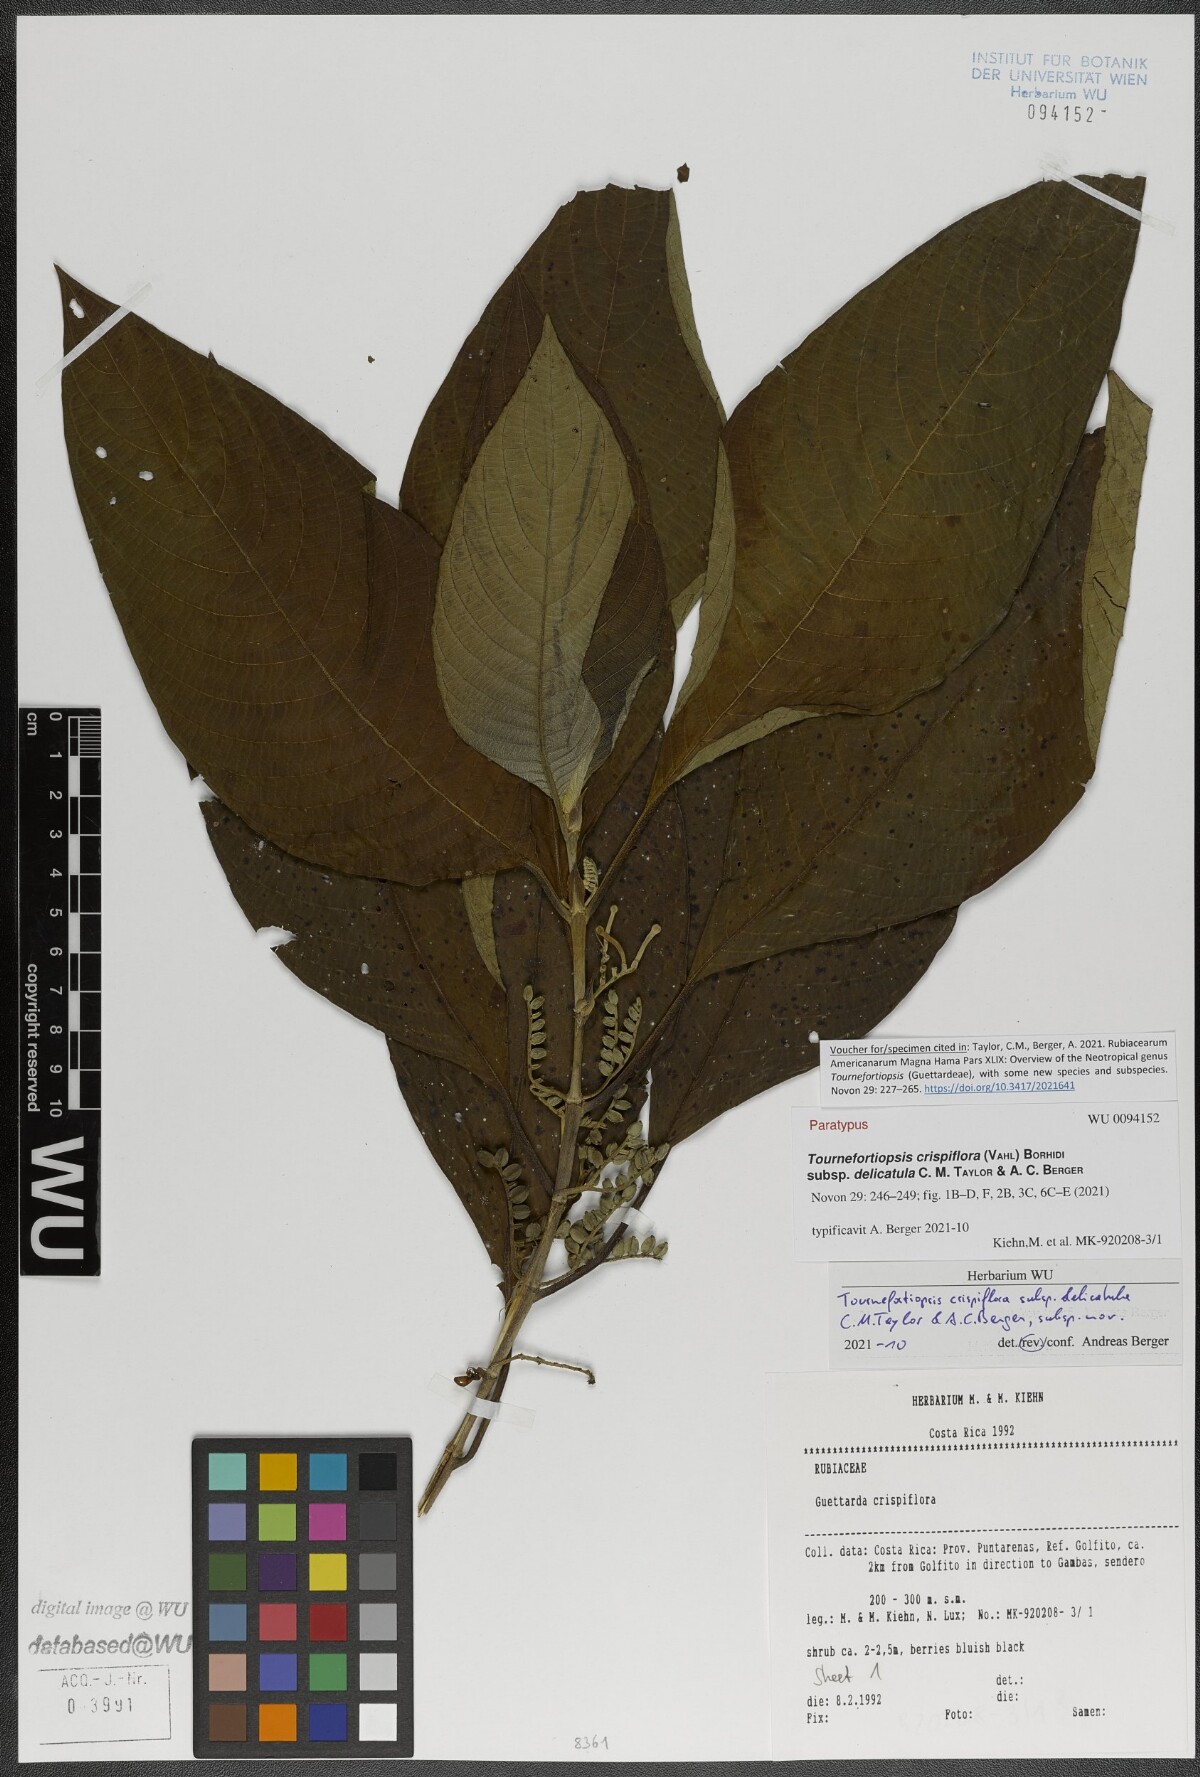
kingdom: Plantae
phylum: Tracheophyta
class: Magnoliopsida
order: Gentianales
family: Rubiaceae
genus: Tournefortiopsis
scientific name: Tournefortiopsis crispiflora
